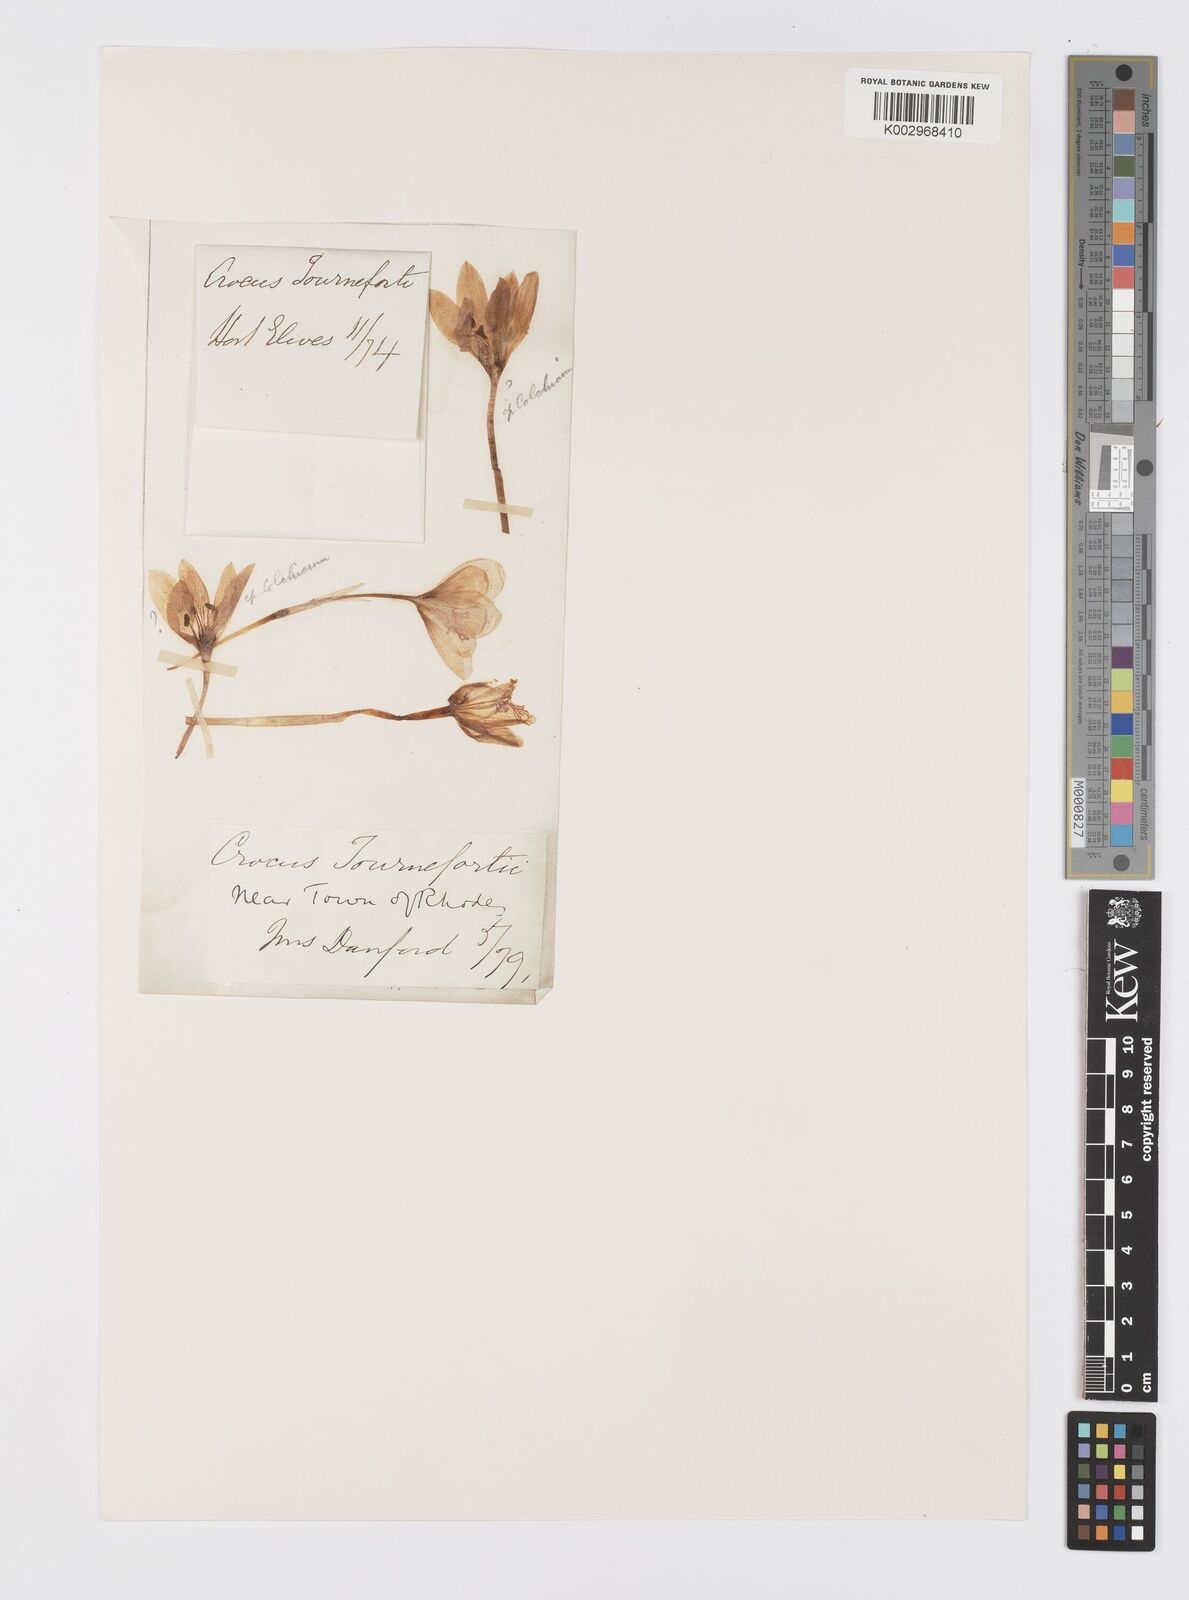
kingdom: Plantae
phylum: Tracheophyta
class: Liliopsida
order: Asparagales
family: Iridaceae
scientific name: Iridaceae
